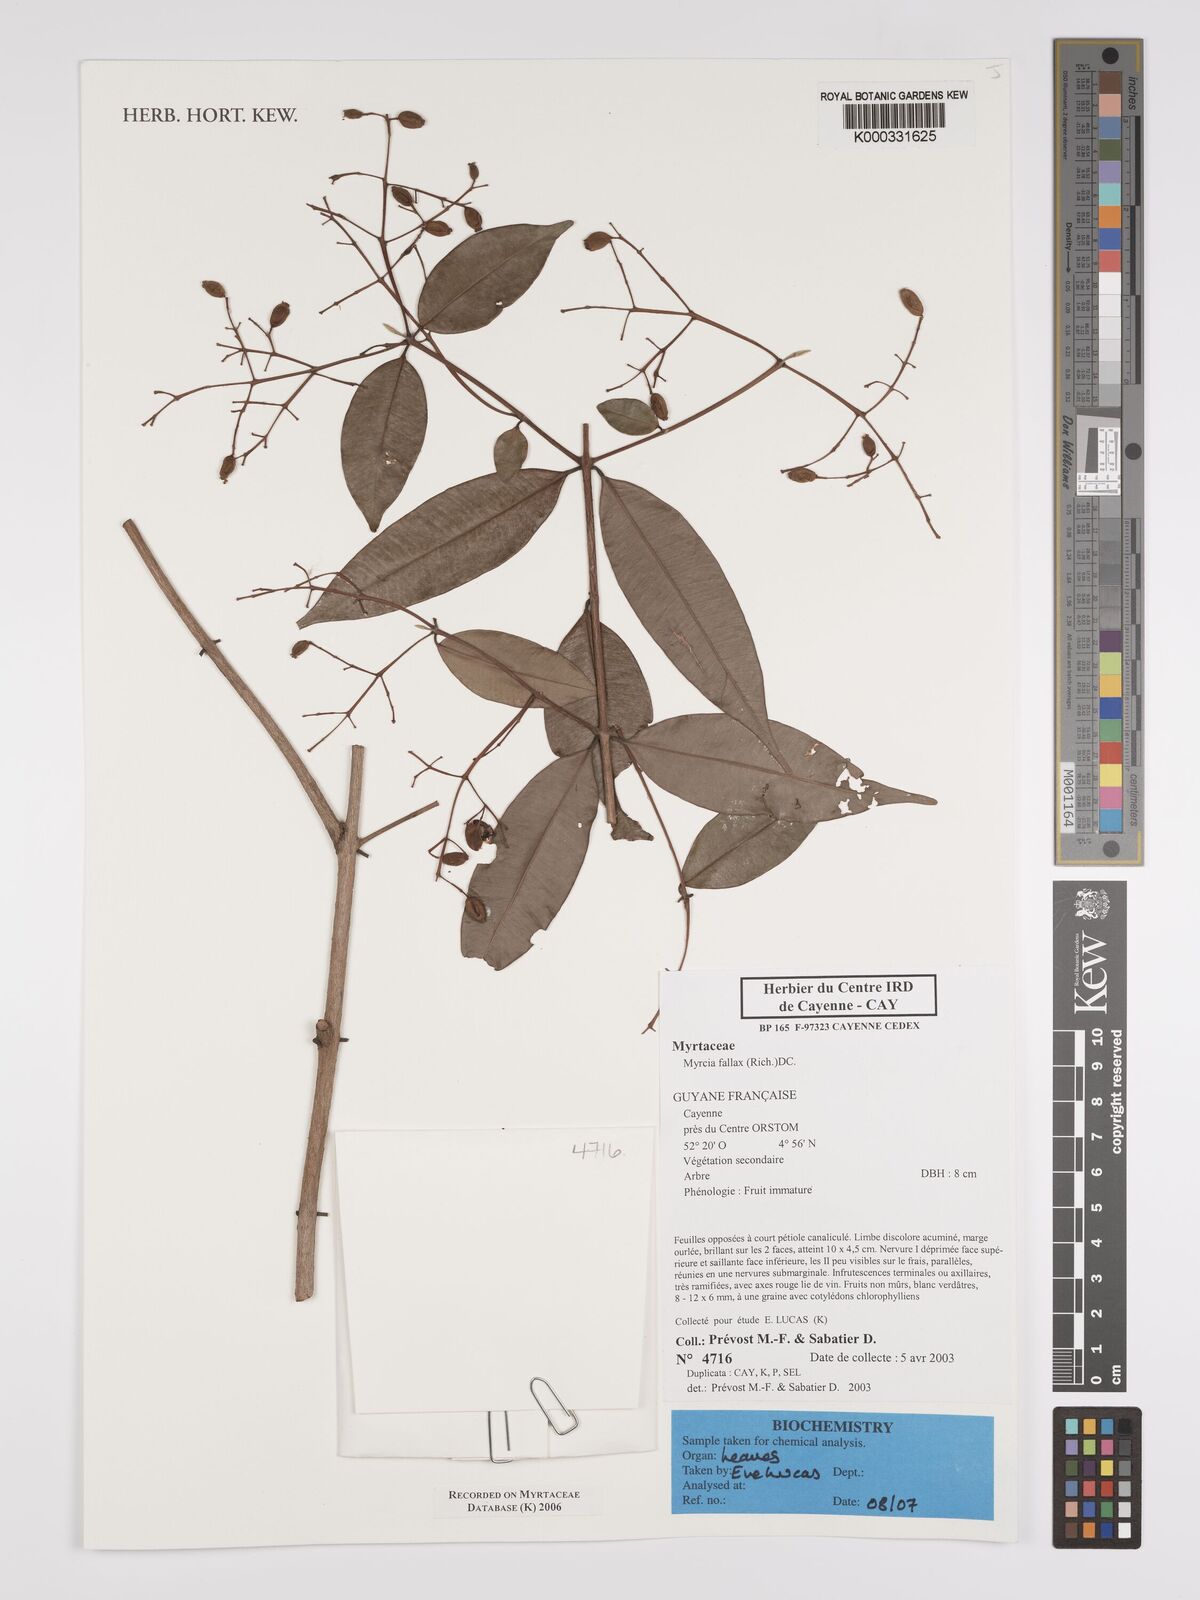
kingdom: Plantae
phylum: Tracheophyta
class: Magnoliopsida
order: Myrtales
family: Myrtaceae
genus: Myrcia
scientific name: Myrcia splendens
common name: Surinam cherry
